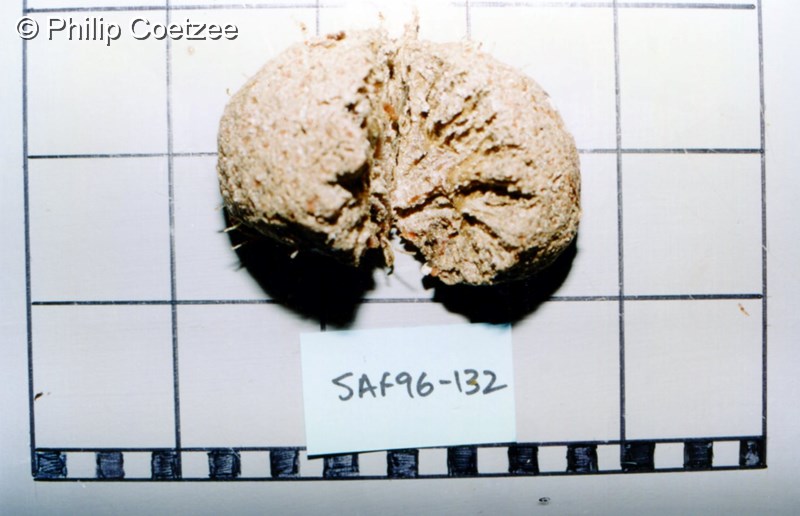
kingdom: Animalia
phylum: Chordata
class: Ascidiacea
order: Aplousobranchia
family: Clavelinidae
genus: Pycnoclavella
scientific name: Pycnoclavella filamentosa
